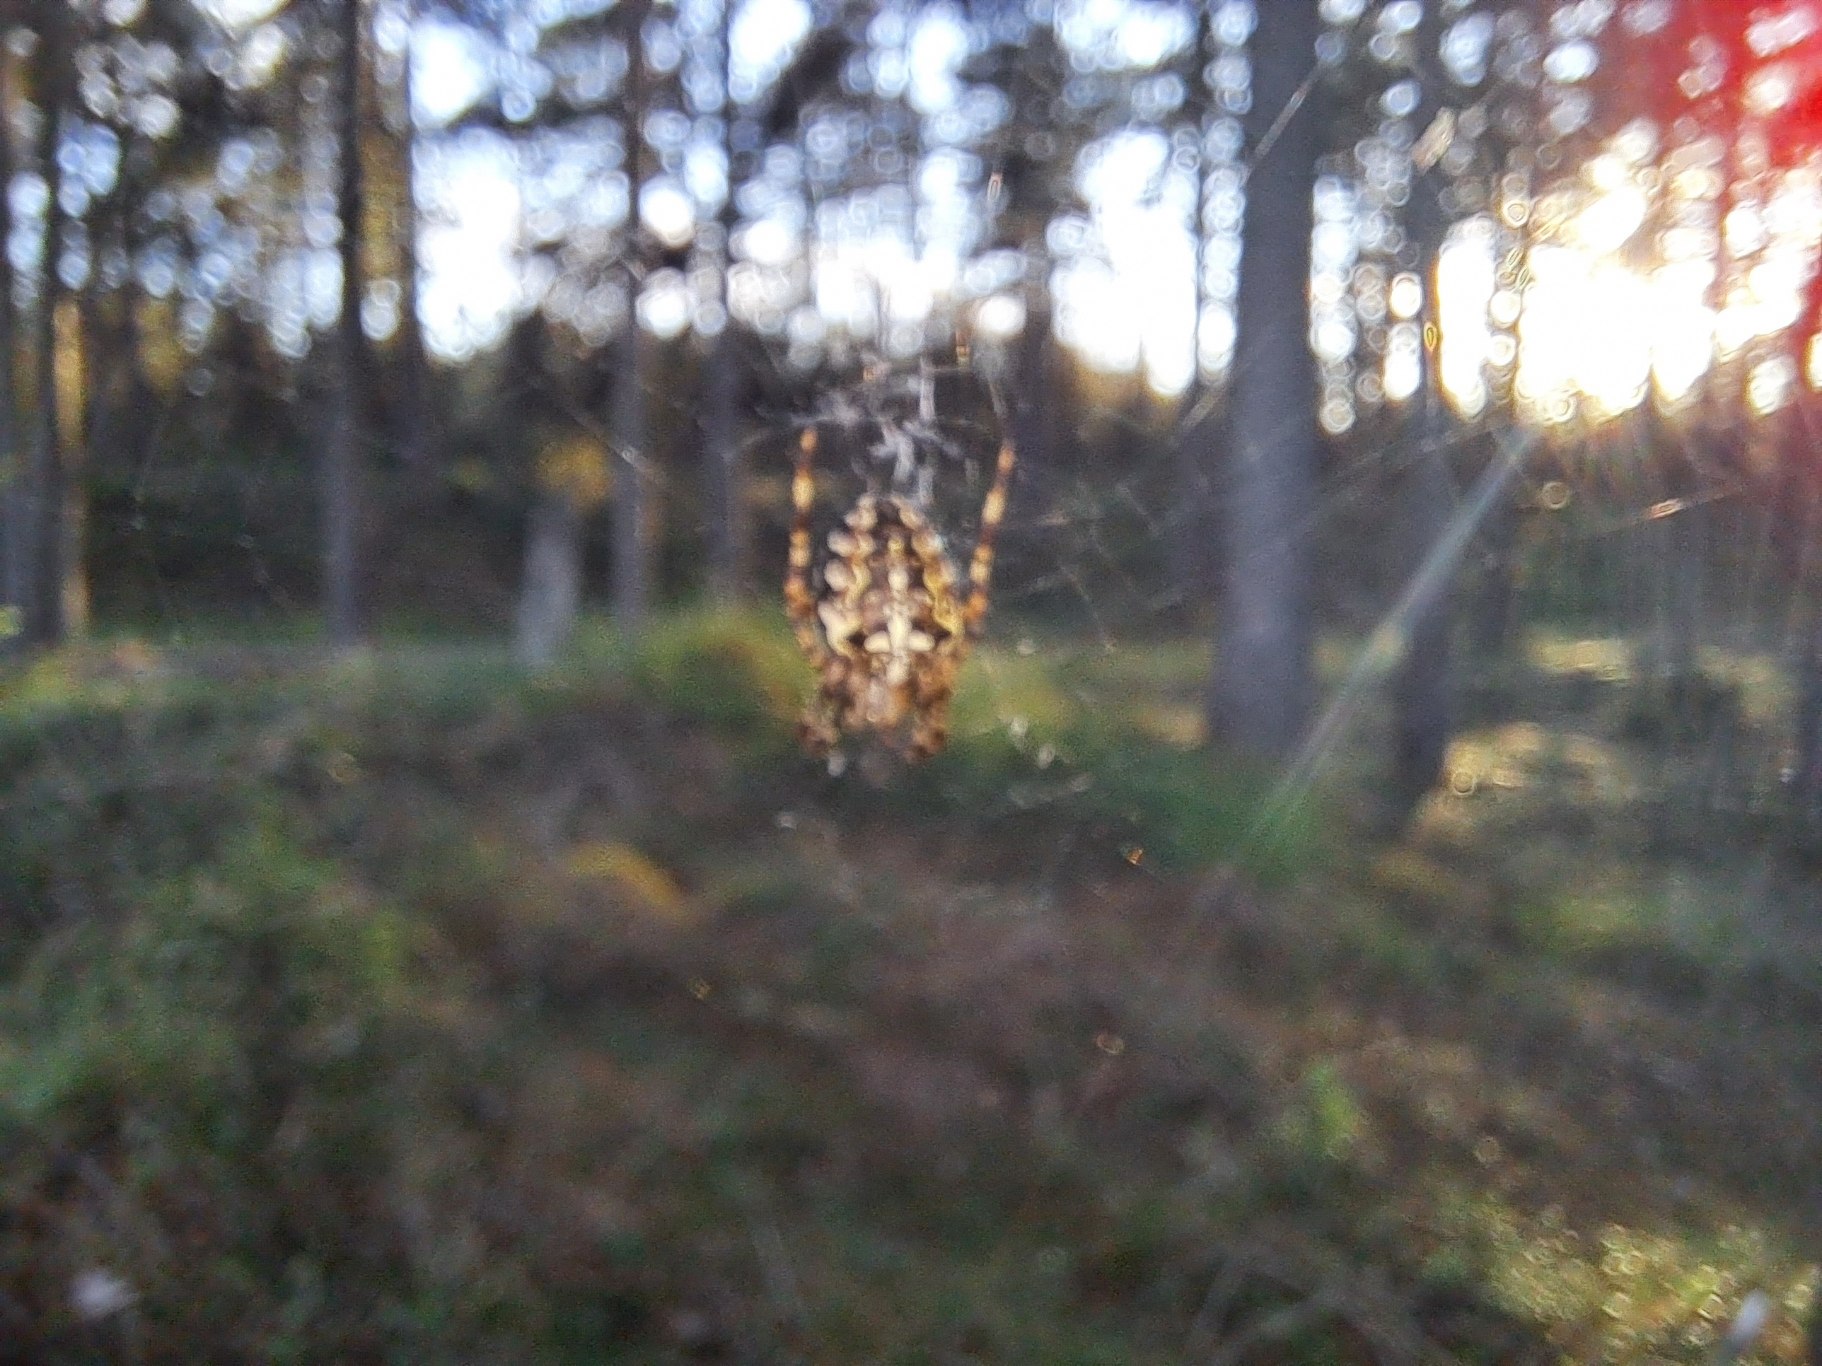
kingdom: Animalia
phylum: Arthropoda
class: Arachnida
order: Araneae
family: Araneidae
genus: Araneus
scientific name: Araneus diadematus
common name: Korsedderkop
